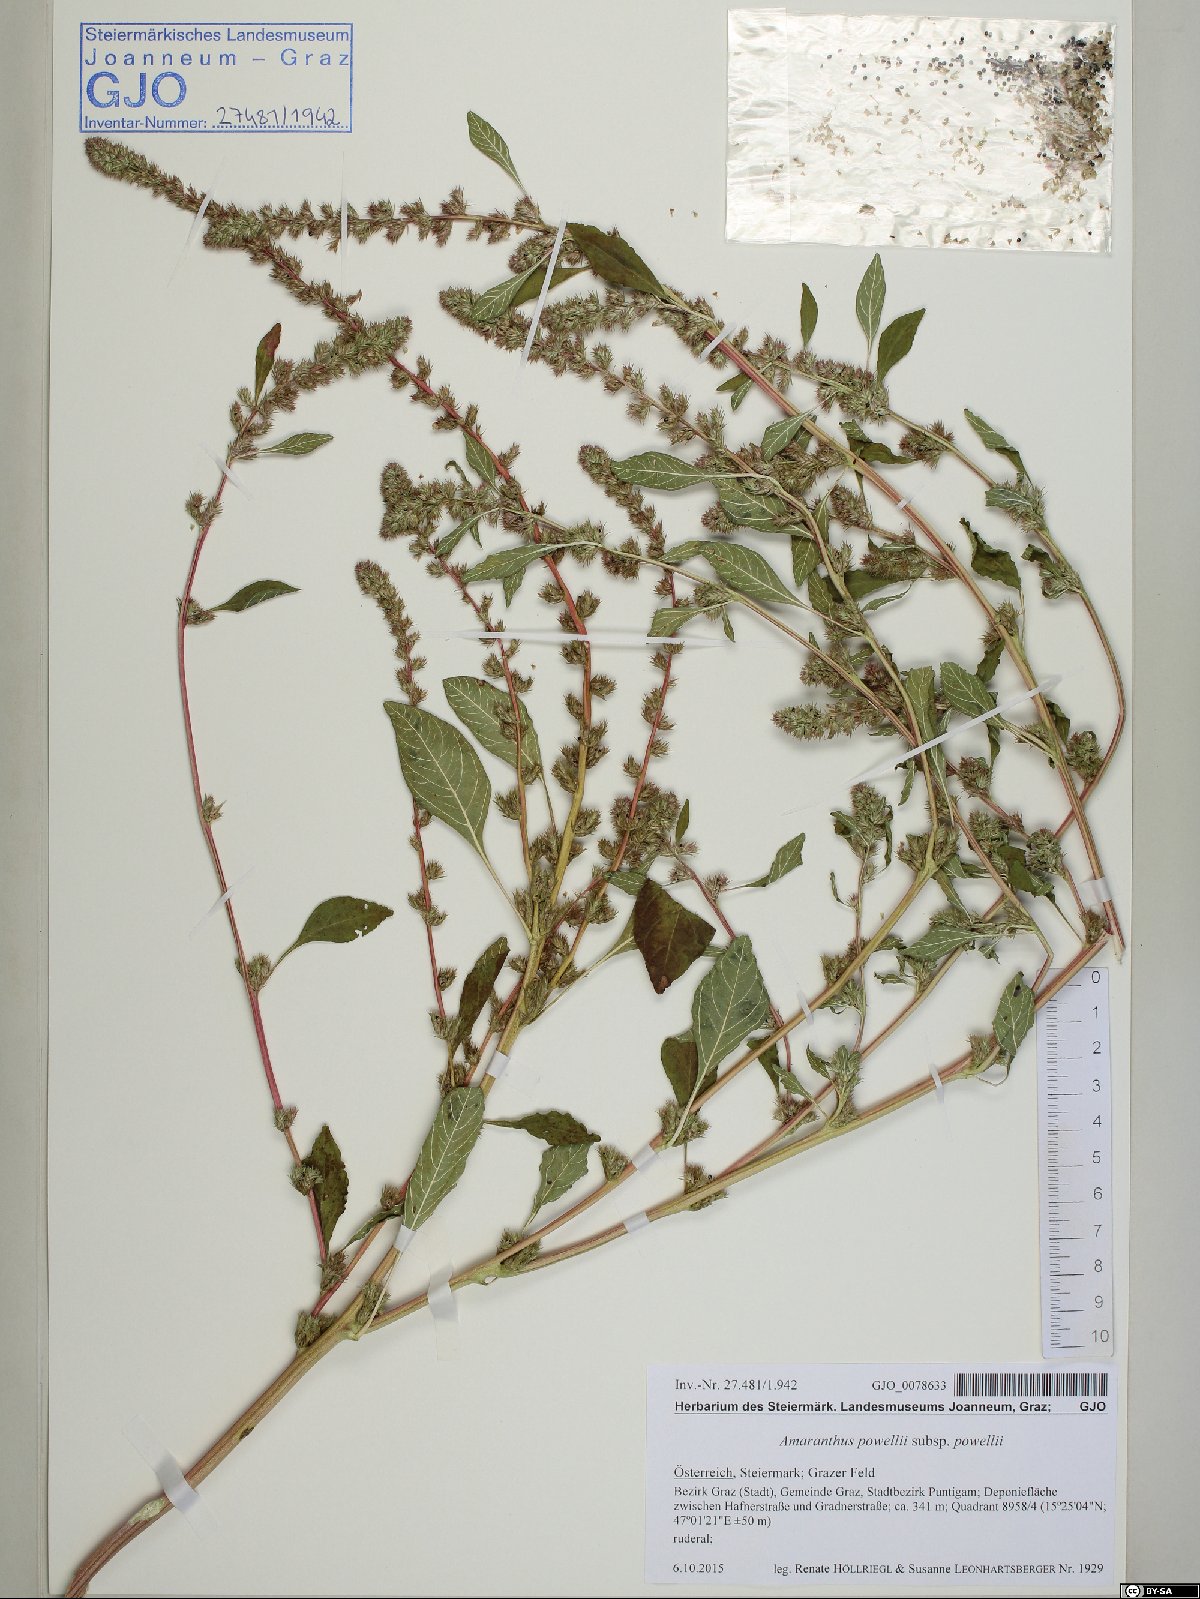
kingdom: Plantae
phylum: Tracheophyta
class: Magnoliopsida
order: Caryophyllales
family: Amaranthaceae
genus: Amaranthus
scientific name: Amaranthus powellii
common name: Powell's amaranth
